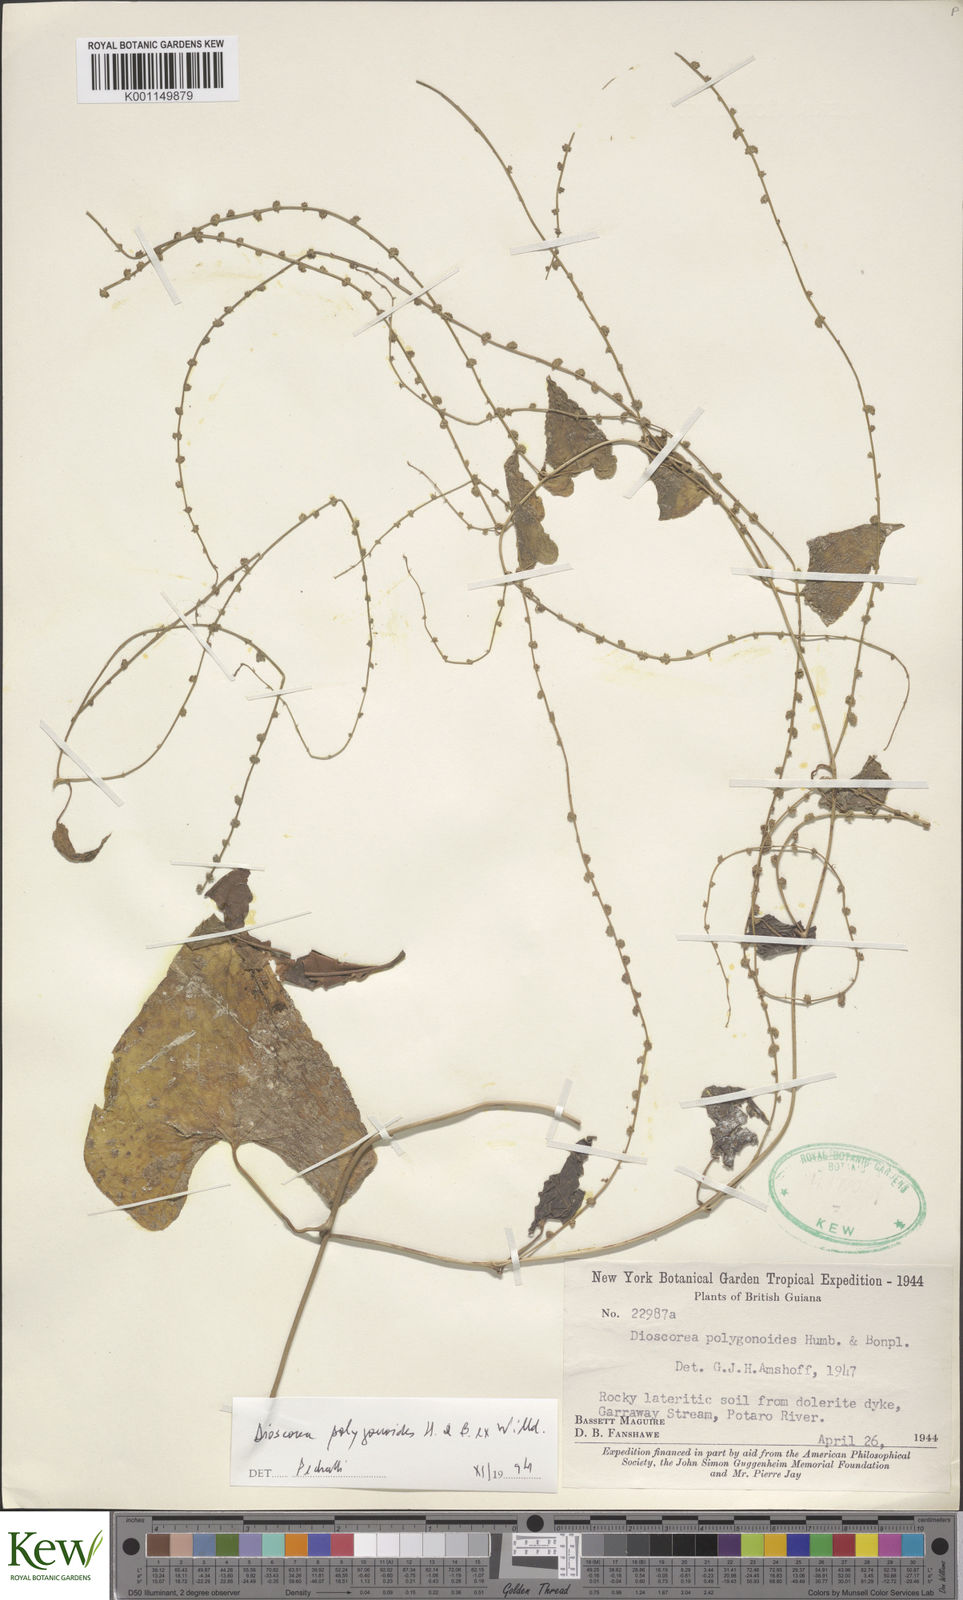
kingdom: Plantae
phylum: Tracheophyta
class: Liliopsida
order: Dioscoreales
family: Dioscoreaceae
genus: Dioscorea
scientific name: Dioscorea polygonoides
